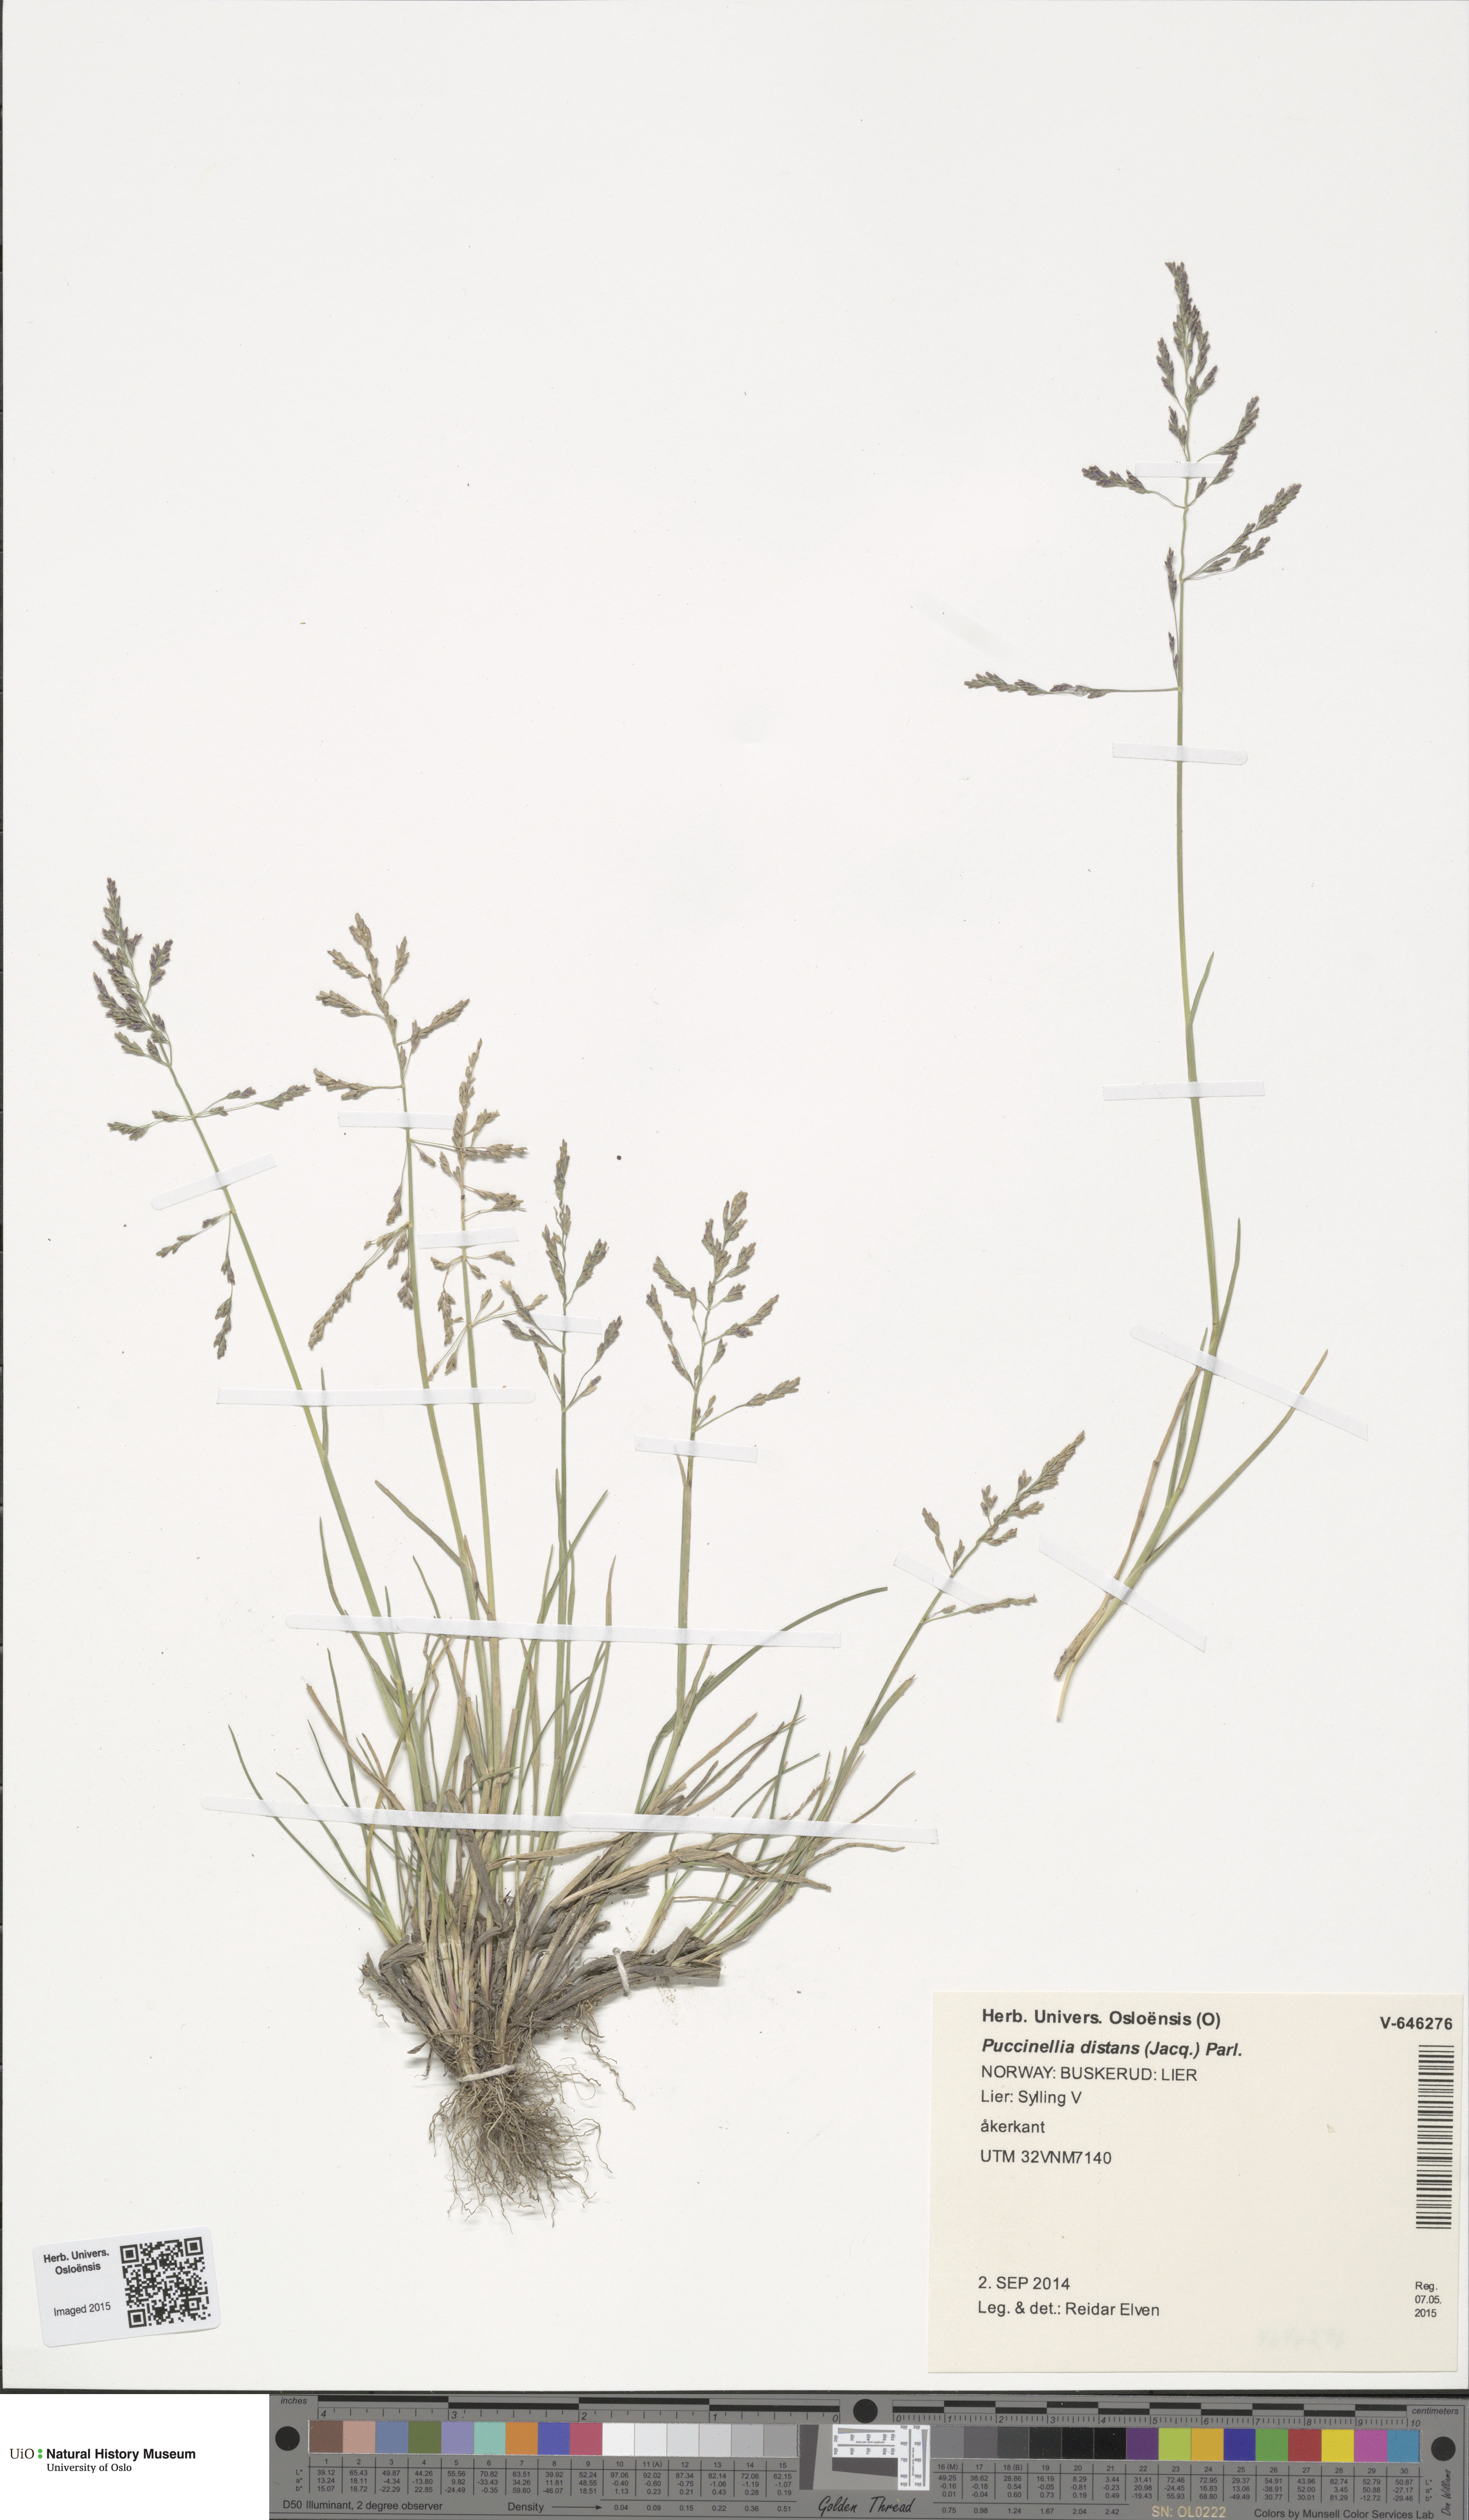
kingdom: Plantae
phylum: Tracheophyta
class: Liliopsida
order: Poales
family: Poaceae
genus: Puccinellia
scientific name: Puccinellia distans
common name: Weeping alkaligrass
